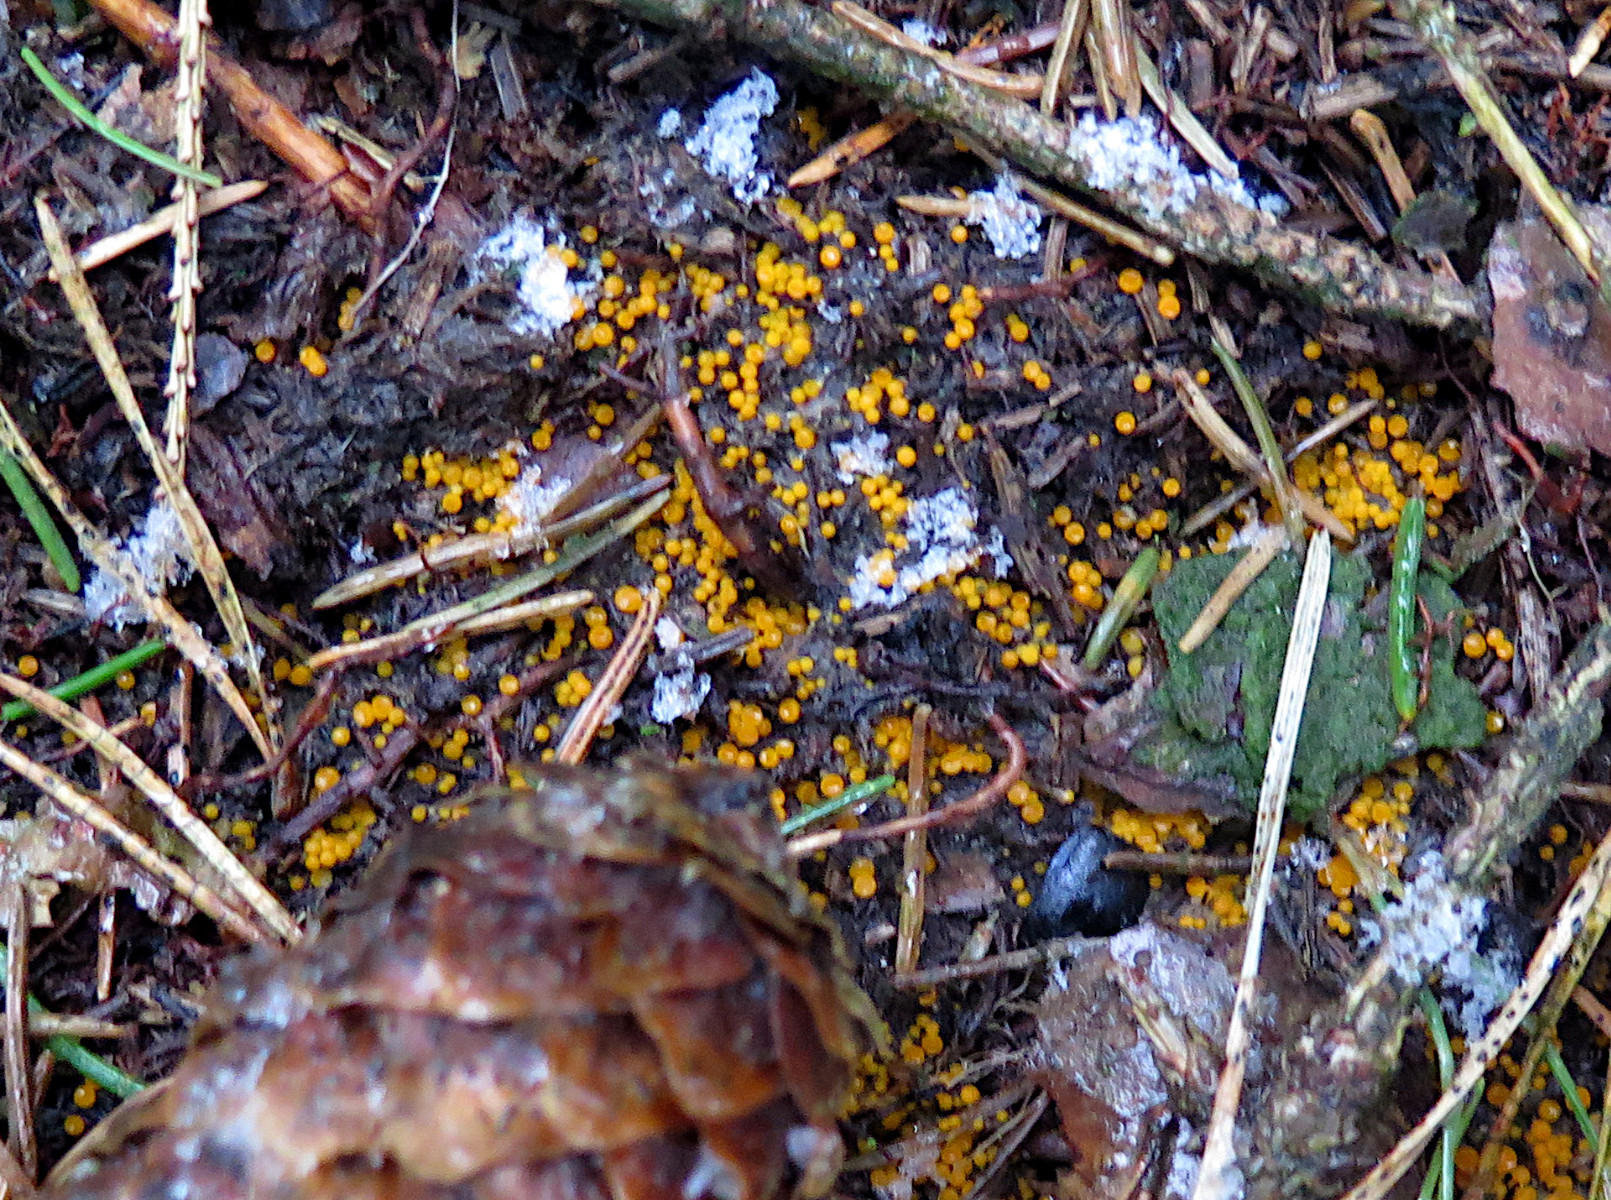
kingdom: Fungi
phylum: Ascomycota
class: Pezizomycetes
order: Pezizales
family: Pyronemataceae
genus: Byssonectria
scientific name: Byssonectria terrestris
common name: hjortebæger
